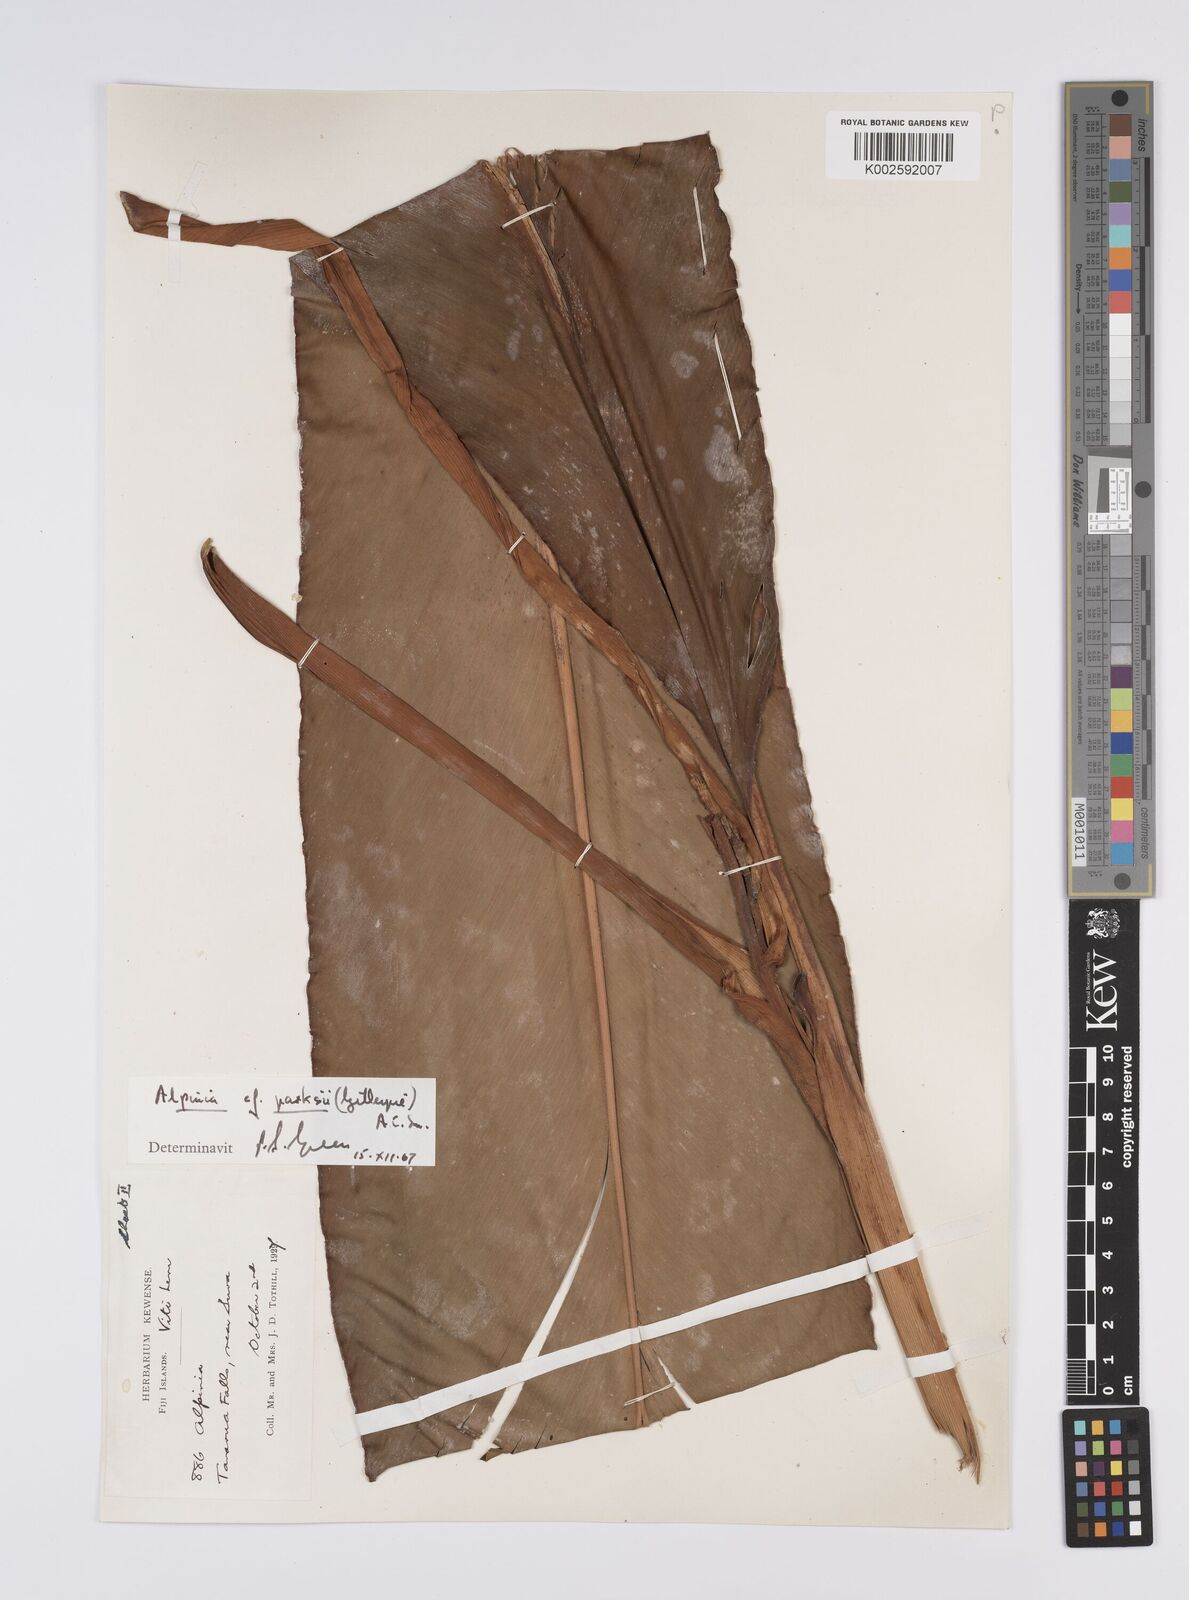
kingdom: Plantae
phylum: Tracheophyta
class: Liliopsida
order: Zingiberales
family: Zingiberaceae
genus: Alpinia
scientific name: Alpinia parksii
